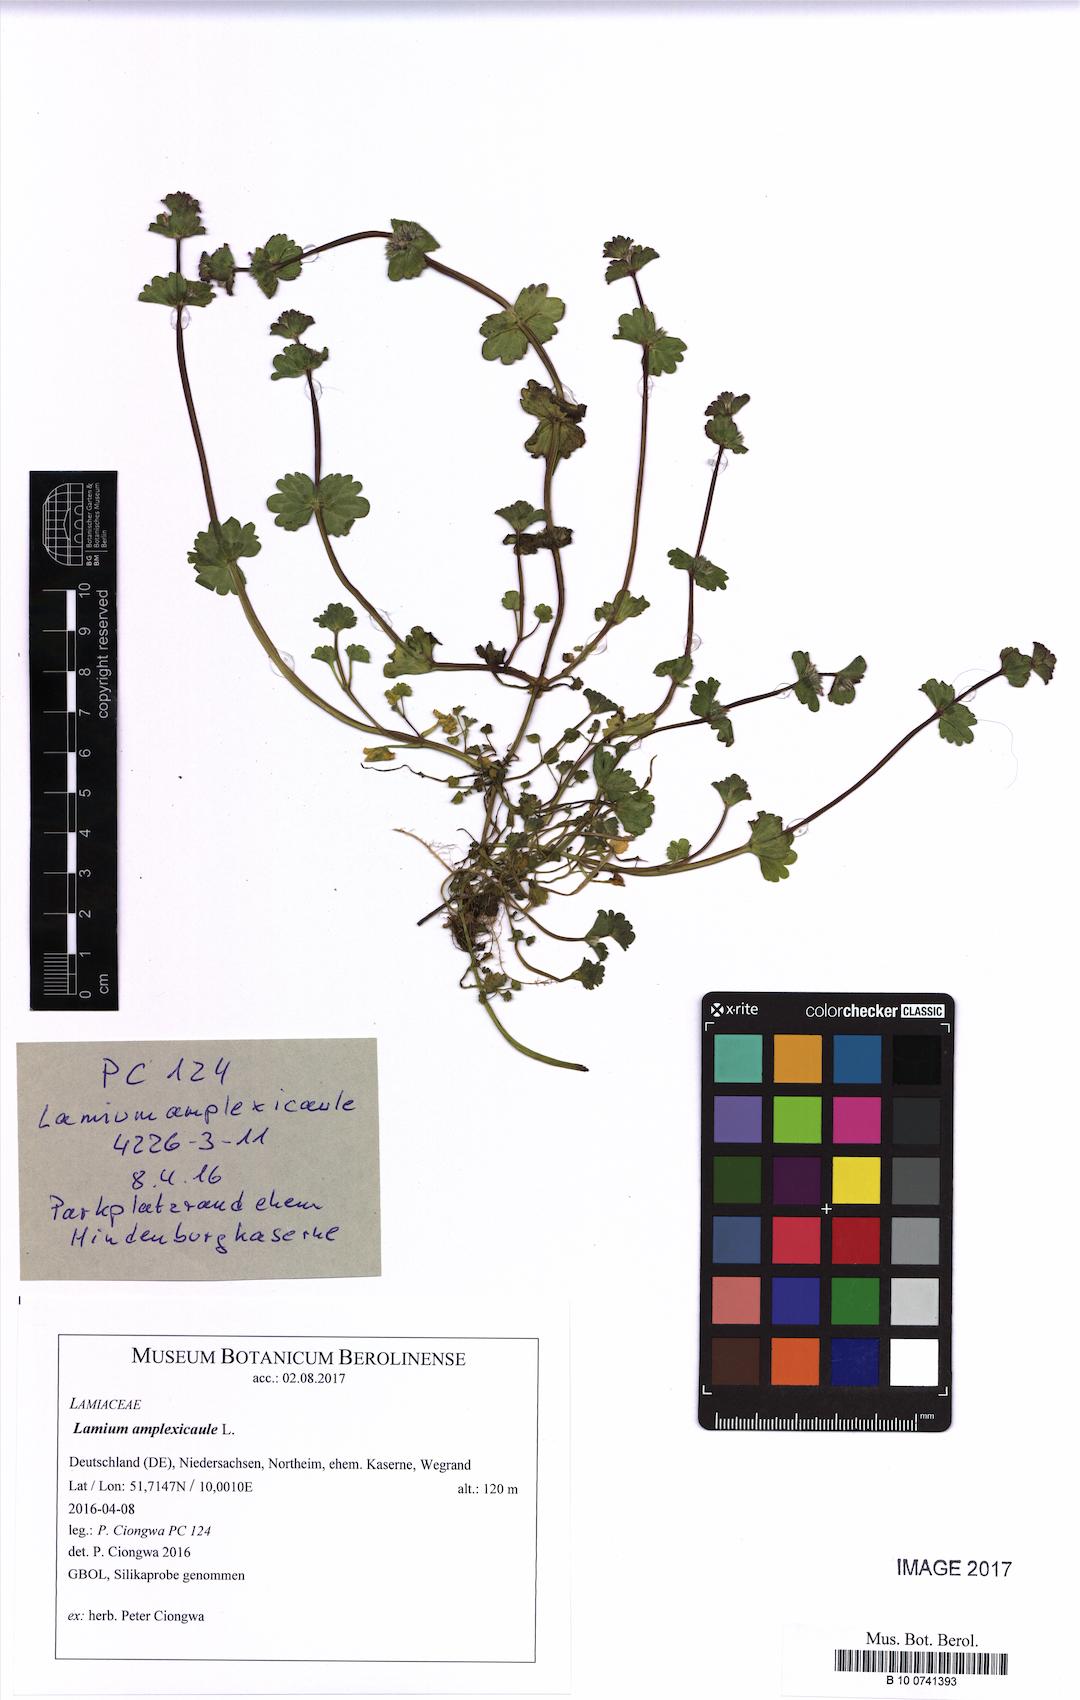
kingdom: Plantae
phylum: Tracheophyta
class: Magnoliopsida
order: Lamiales
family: Lamiaceae
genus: Lamium
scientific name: Lamium amplexicaule
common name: Henbit dead-nettle
